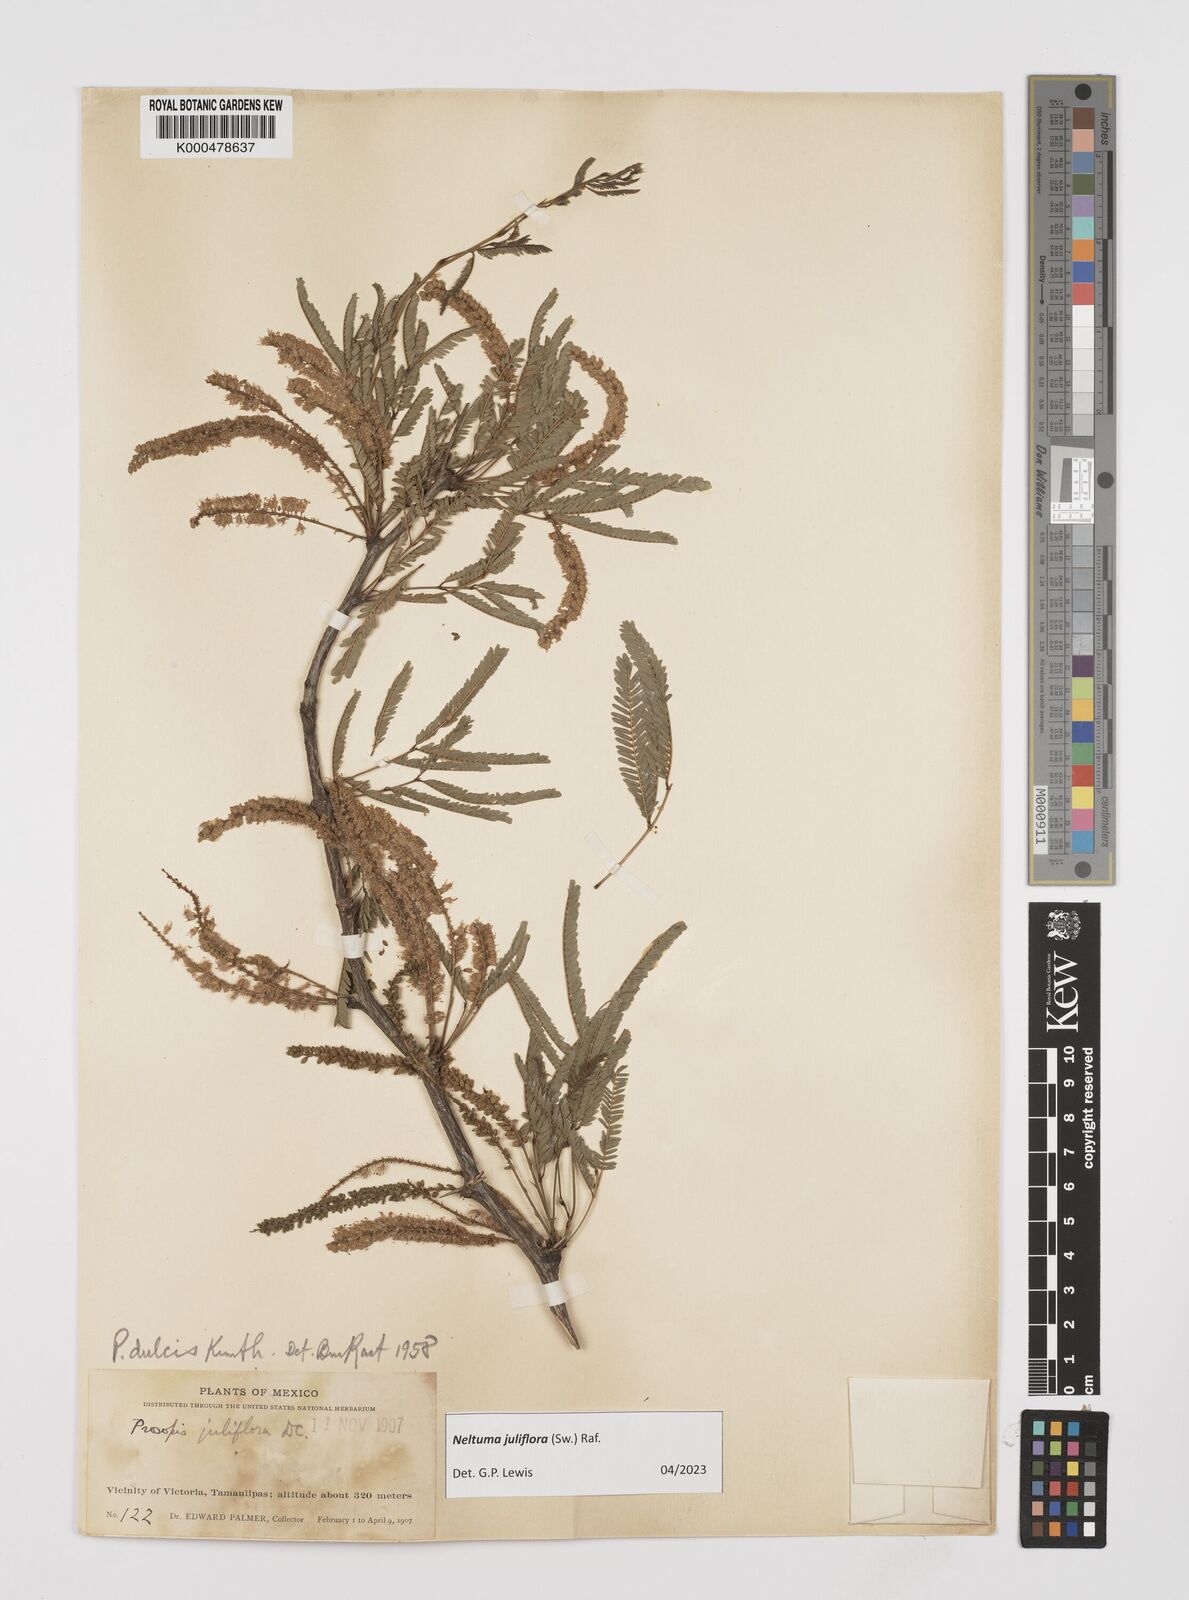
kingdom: Plantae
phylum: Tracheophyta
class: Magnoliopsida
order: Fabales
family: Fabaceae
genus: Prosopis
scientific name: Prosopis laevigata
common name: Smooth mesquite
